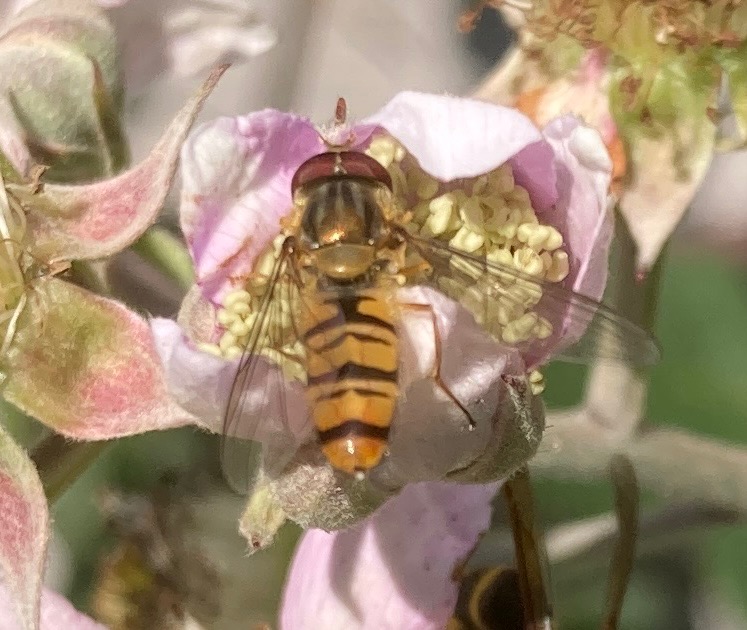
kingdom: Animalia
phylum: Arthropoda
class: Insecta
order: Diptera
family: Syrphidae
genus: Episyrphus
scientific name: Episyrphus balteatus
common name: Dobbeltbåndet svirreflue
